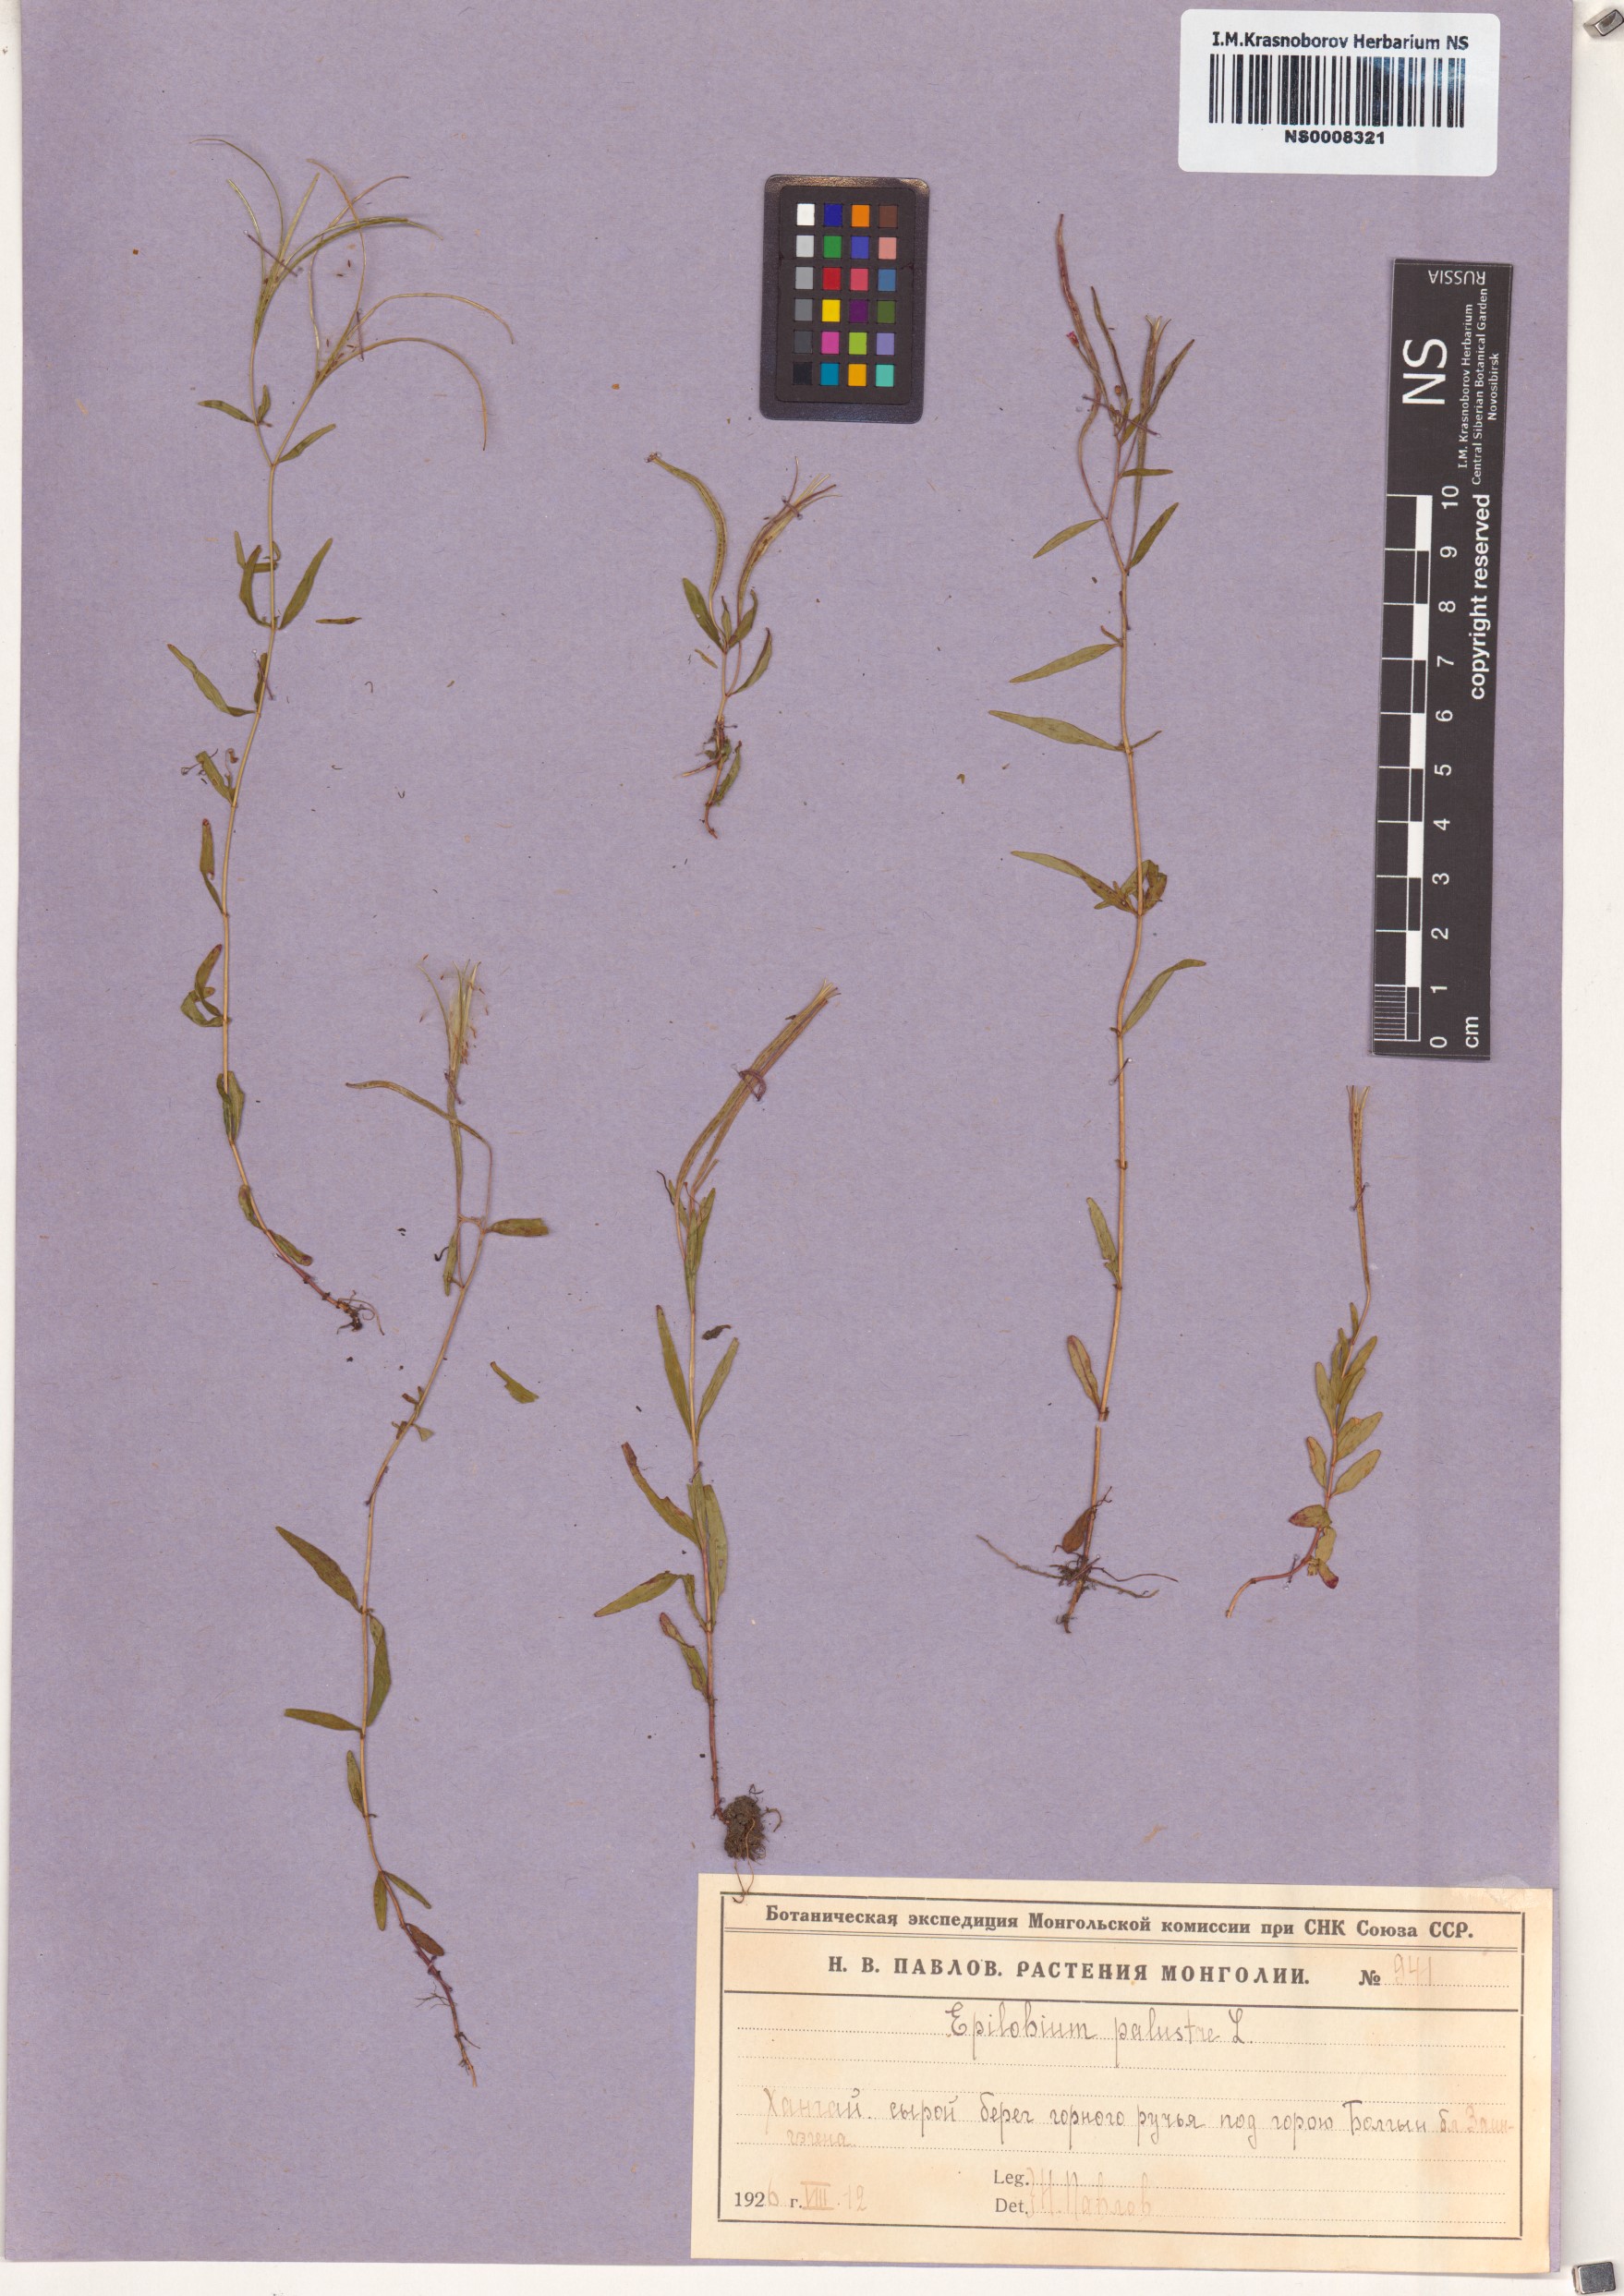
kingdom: Plantae
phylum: Tracheophyta
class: Magnoliopsida
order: Myrtales
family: Onagraceae
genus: Epilobium
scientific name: Epilobium palustre
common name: Marsh willowherb
